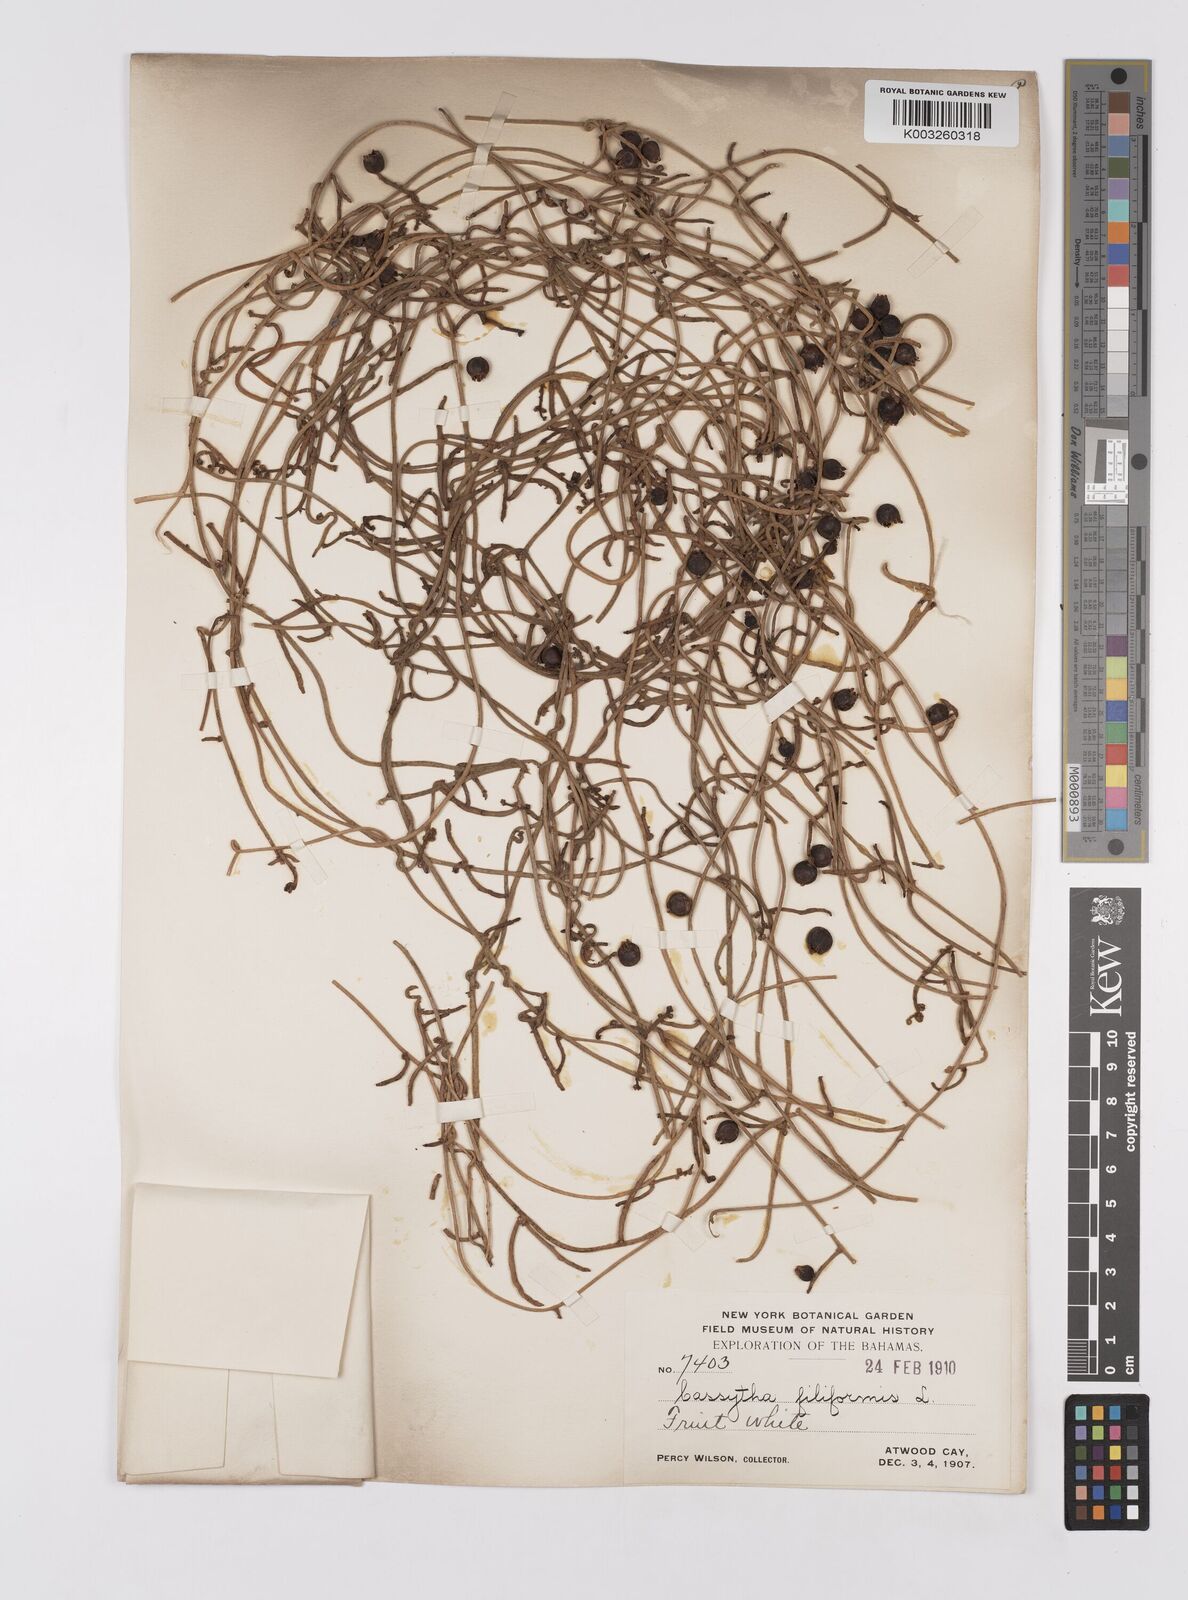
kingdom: Plantae
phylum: Tracheophyta
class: Magnoliopsida
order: Laurales
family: Lauraceae
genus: Cassytha
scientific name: Cassytha filiformis
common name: Dodder-laurel
